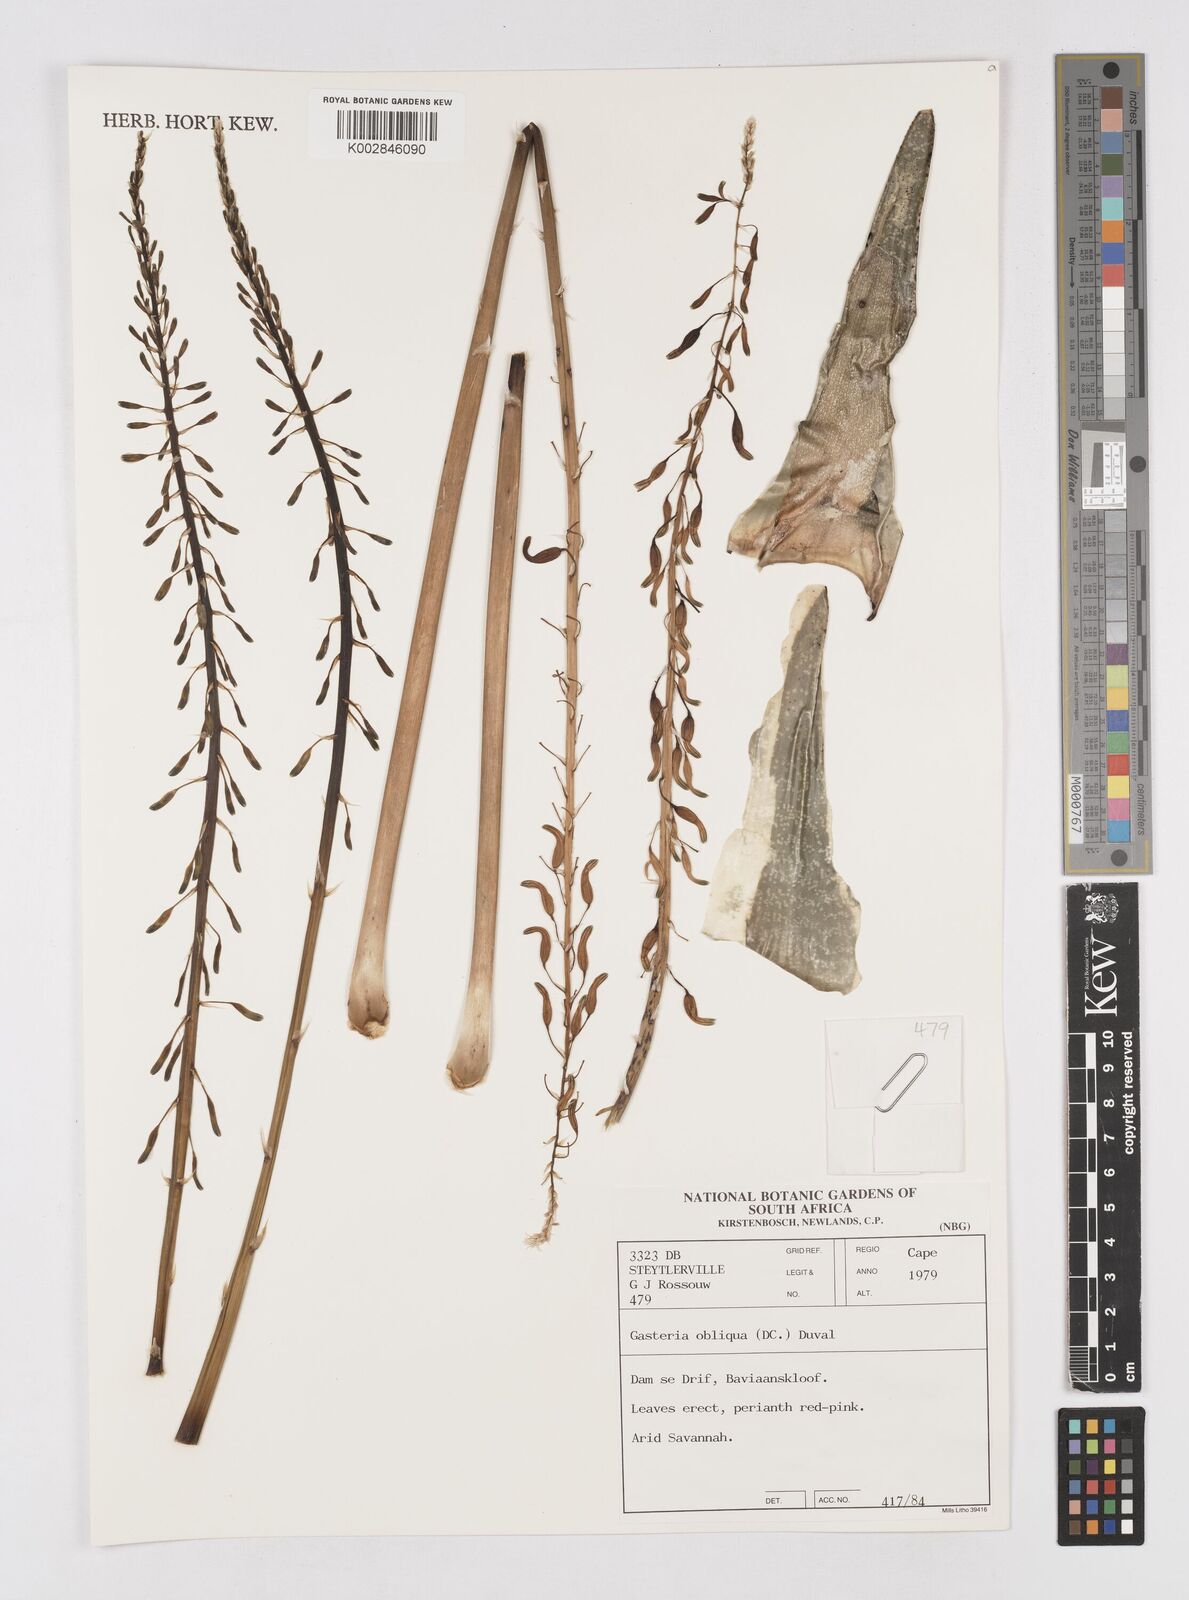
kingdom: Plantae
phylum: Tracheophyta
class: Liliopsida
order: Asparagales
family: Asphodelaceae
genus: Gasteria
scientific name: Gasteria obliqua
